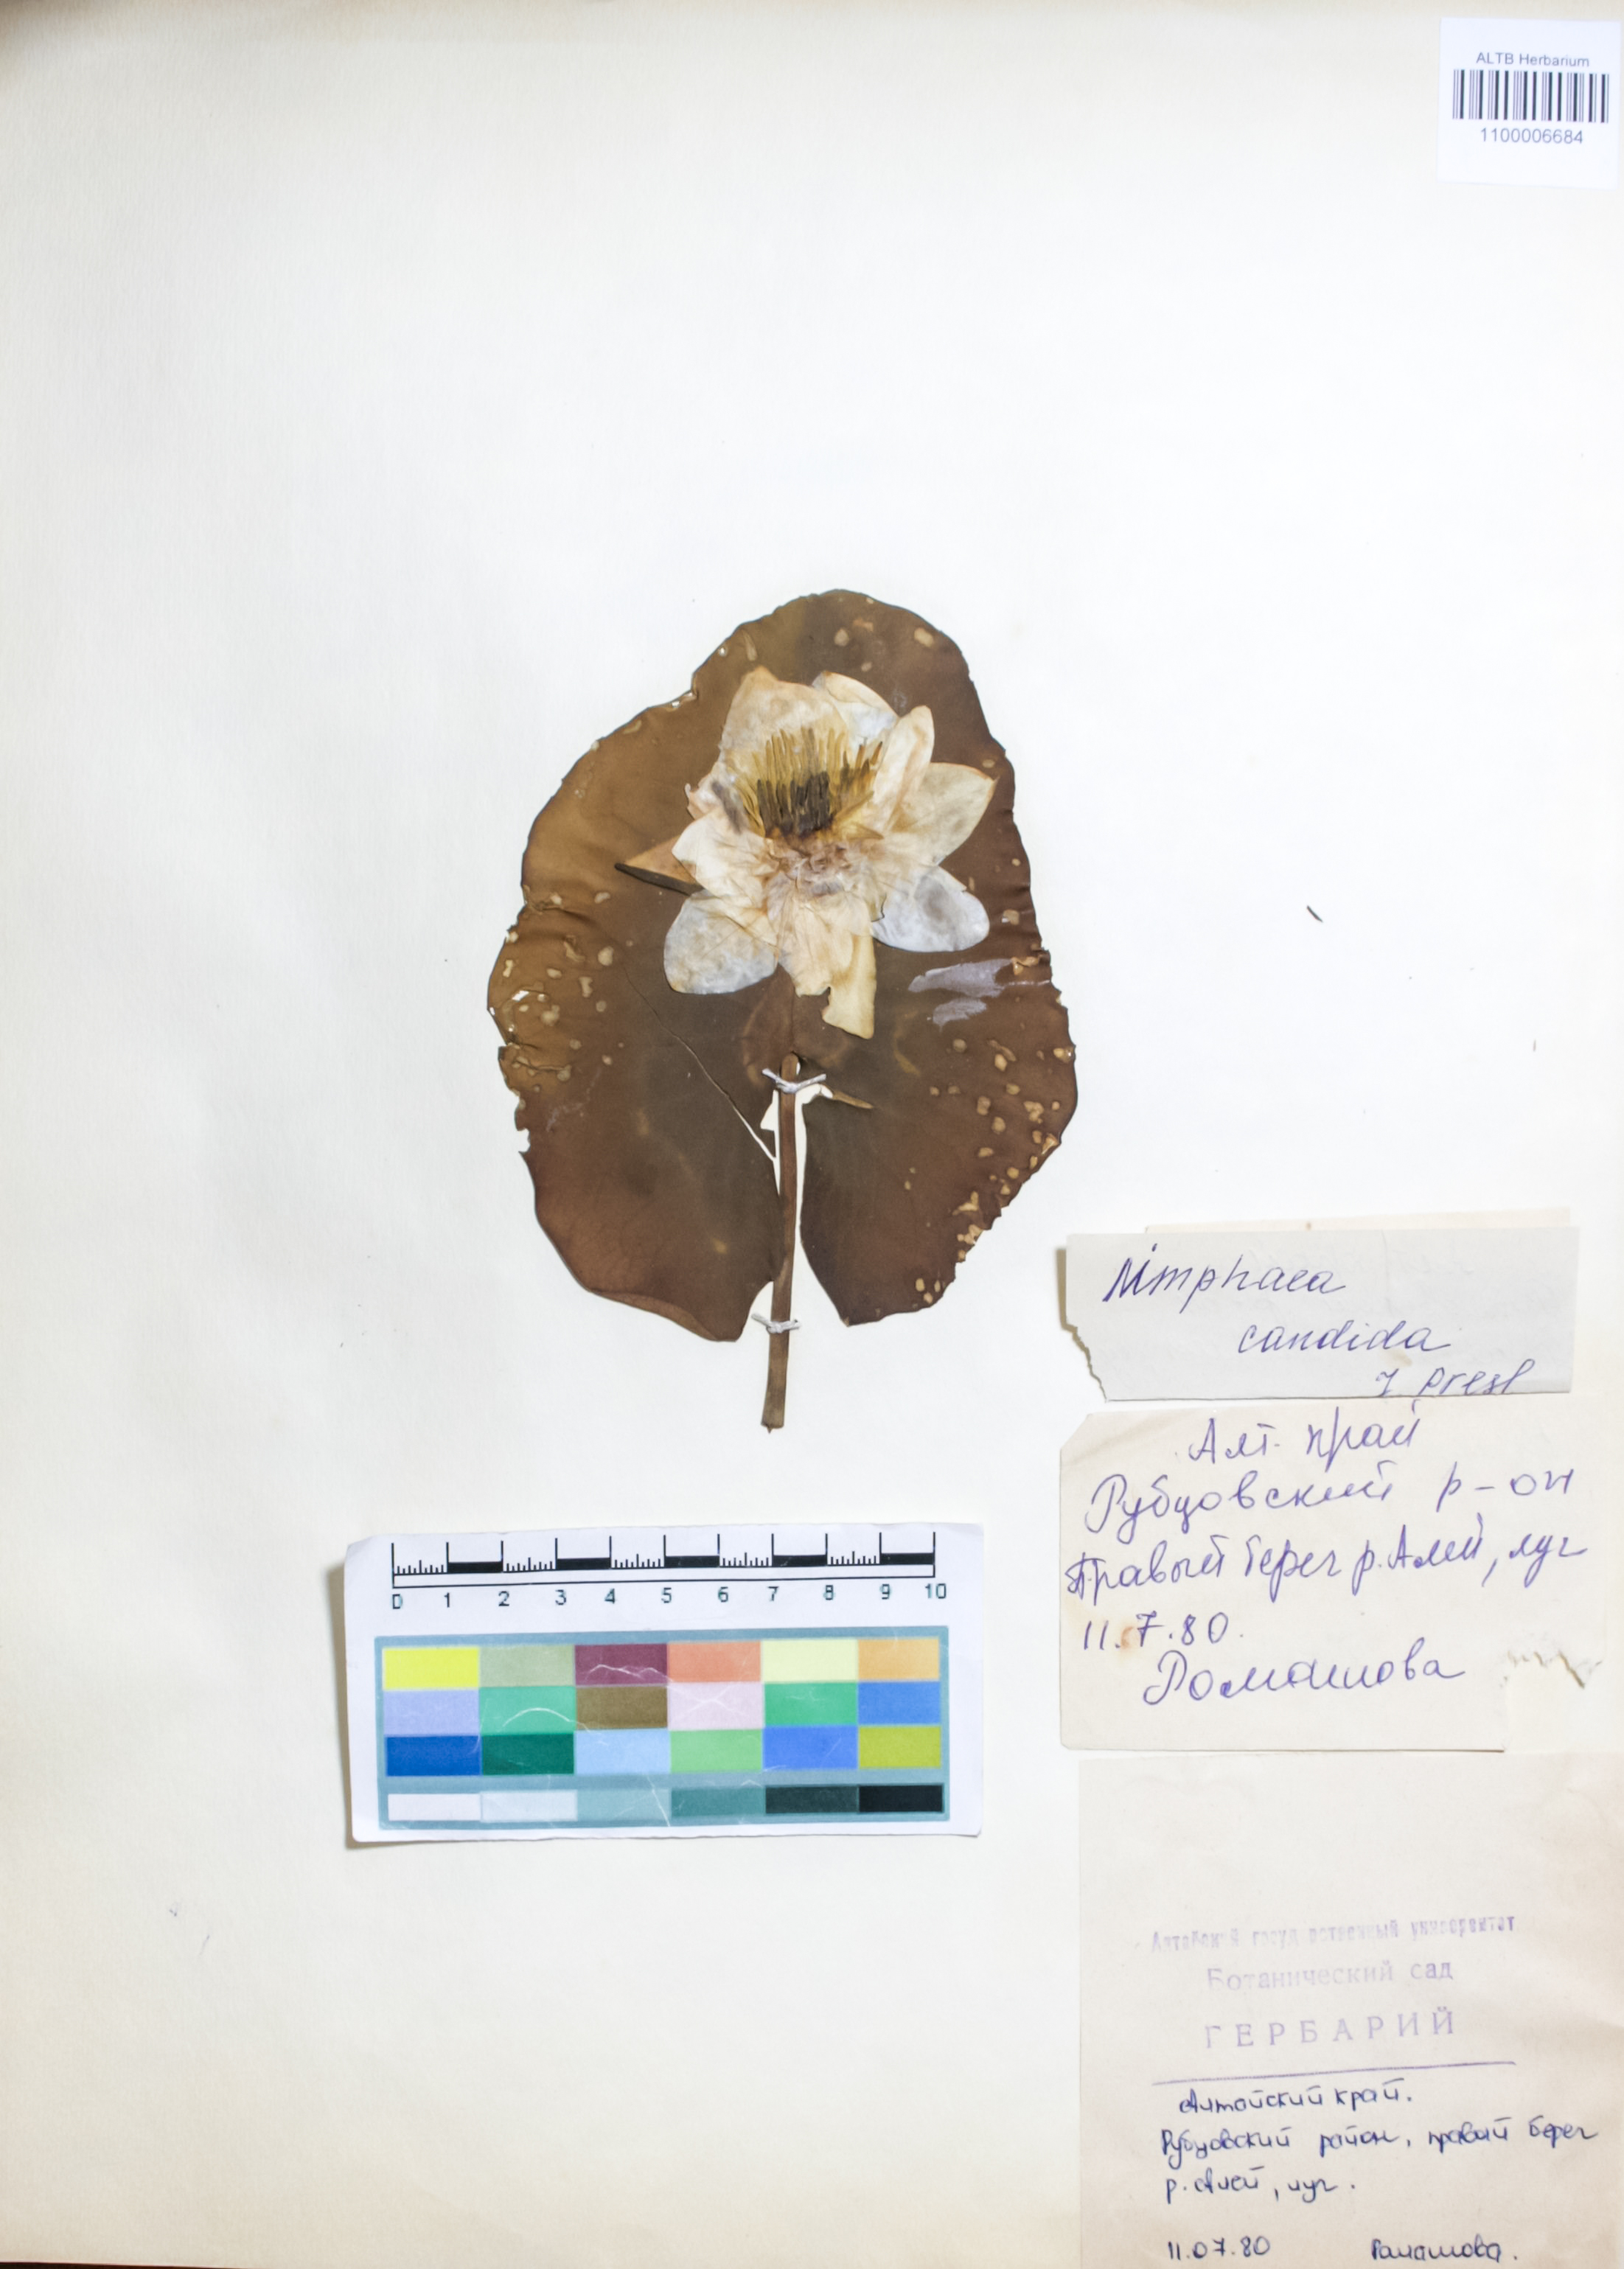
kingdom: Plantae
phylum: Tracheophyta
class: Magnoliopsida
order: Nymphaeales
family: Nymphaeaceae
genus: Nymphaea
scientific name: Nymphaea candida
